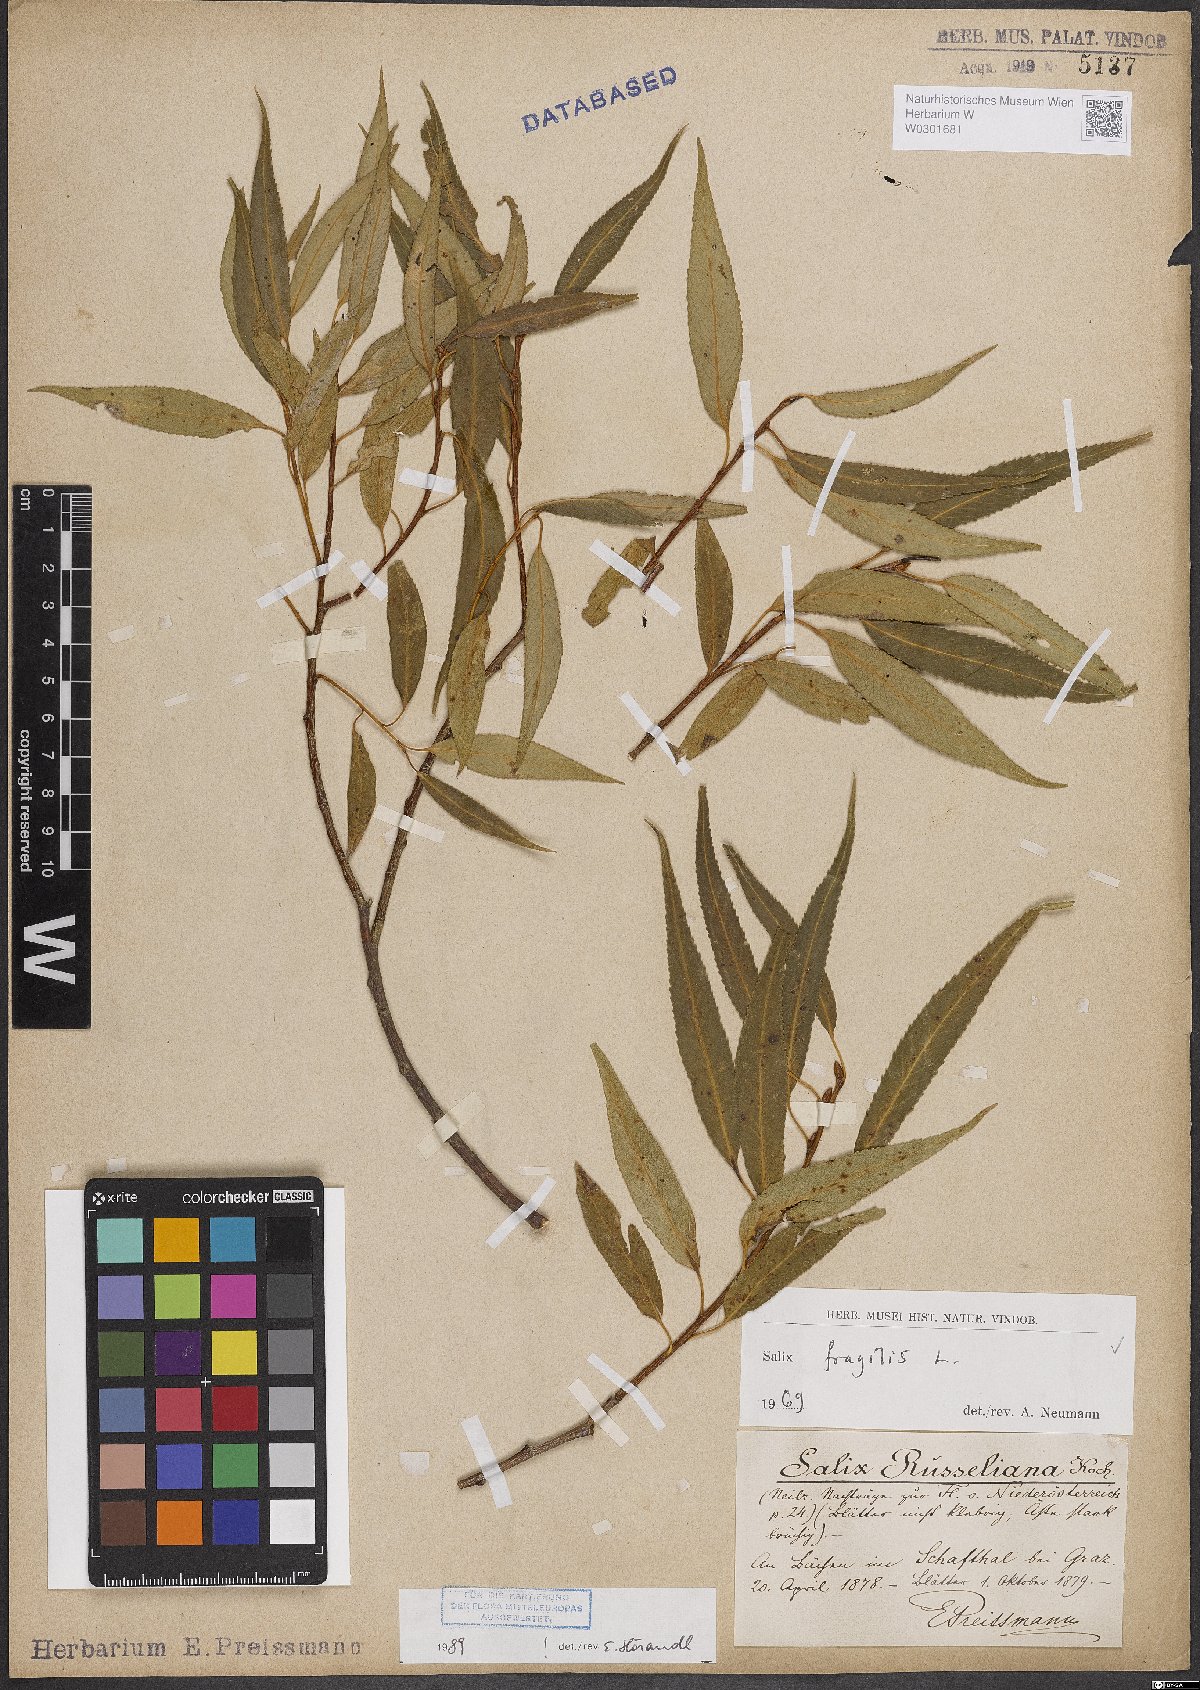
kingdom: Plantae
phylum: Tracheophyta
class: Magnoliopsida
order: Malpighiales
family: Salicaceae
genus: Salix
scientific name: Salix fragilis
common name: Crack willow
